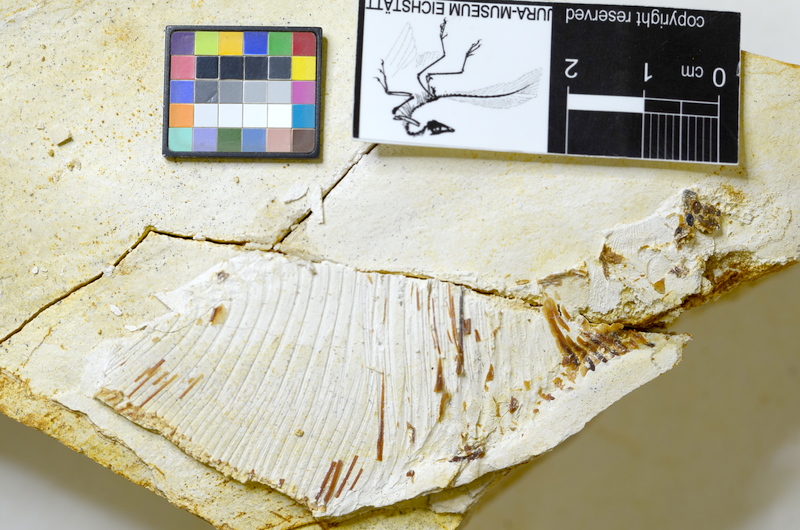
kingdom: Animalia
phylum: Chordata
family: Pycnodontidae
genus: Turbomesodon
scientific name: Turbomesodon relegans
